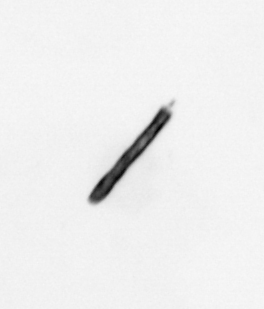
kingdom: Animalia
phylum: Annelida
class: Polychaeta
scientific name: Polychaeta
